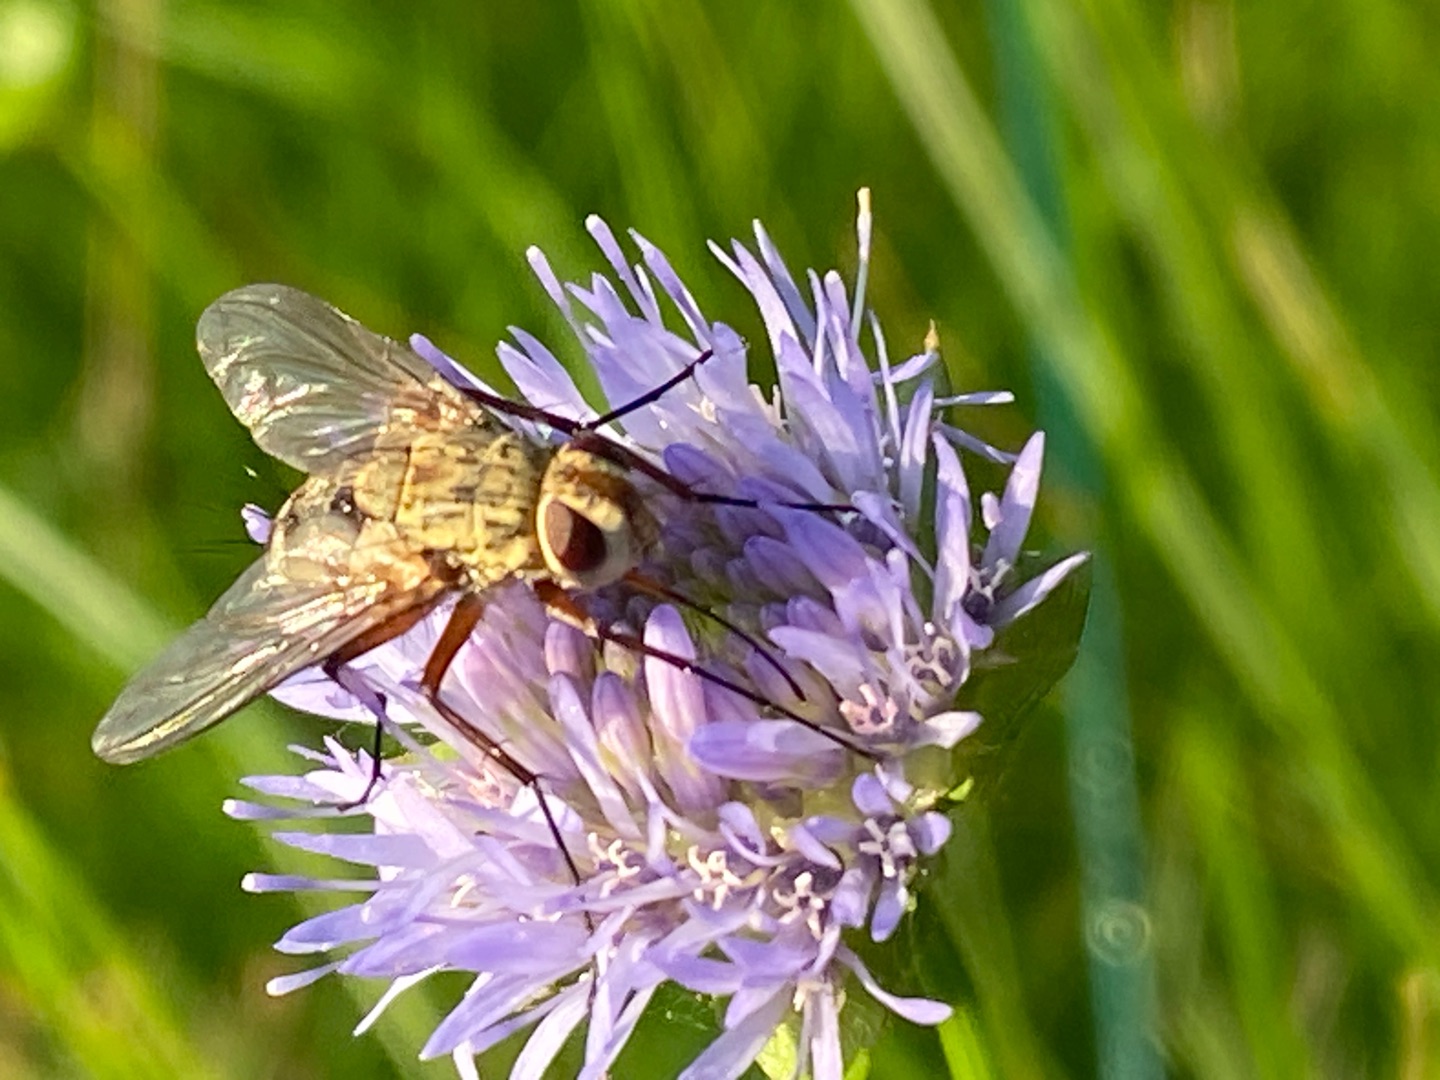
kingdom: Animalia
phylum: Arthropoda
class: Insecta
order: Diptera
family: Tachinidae
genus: Prosena
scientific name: Prosena siberita
